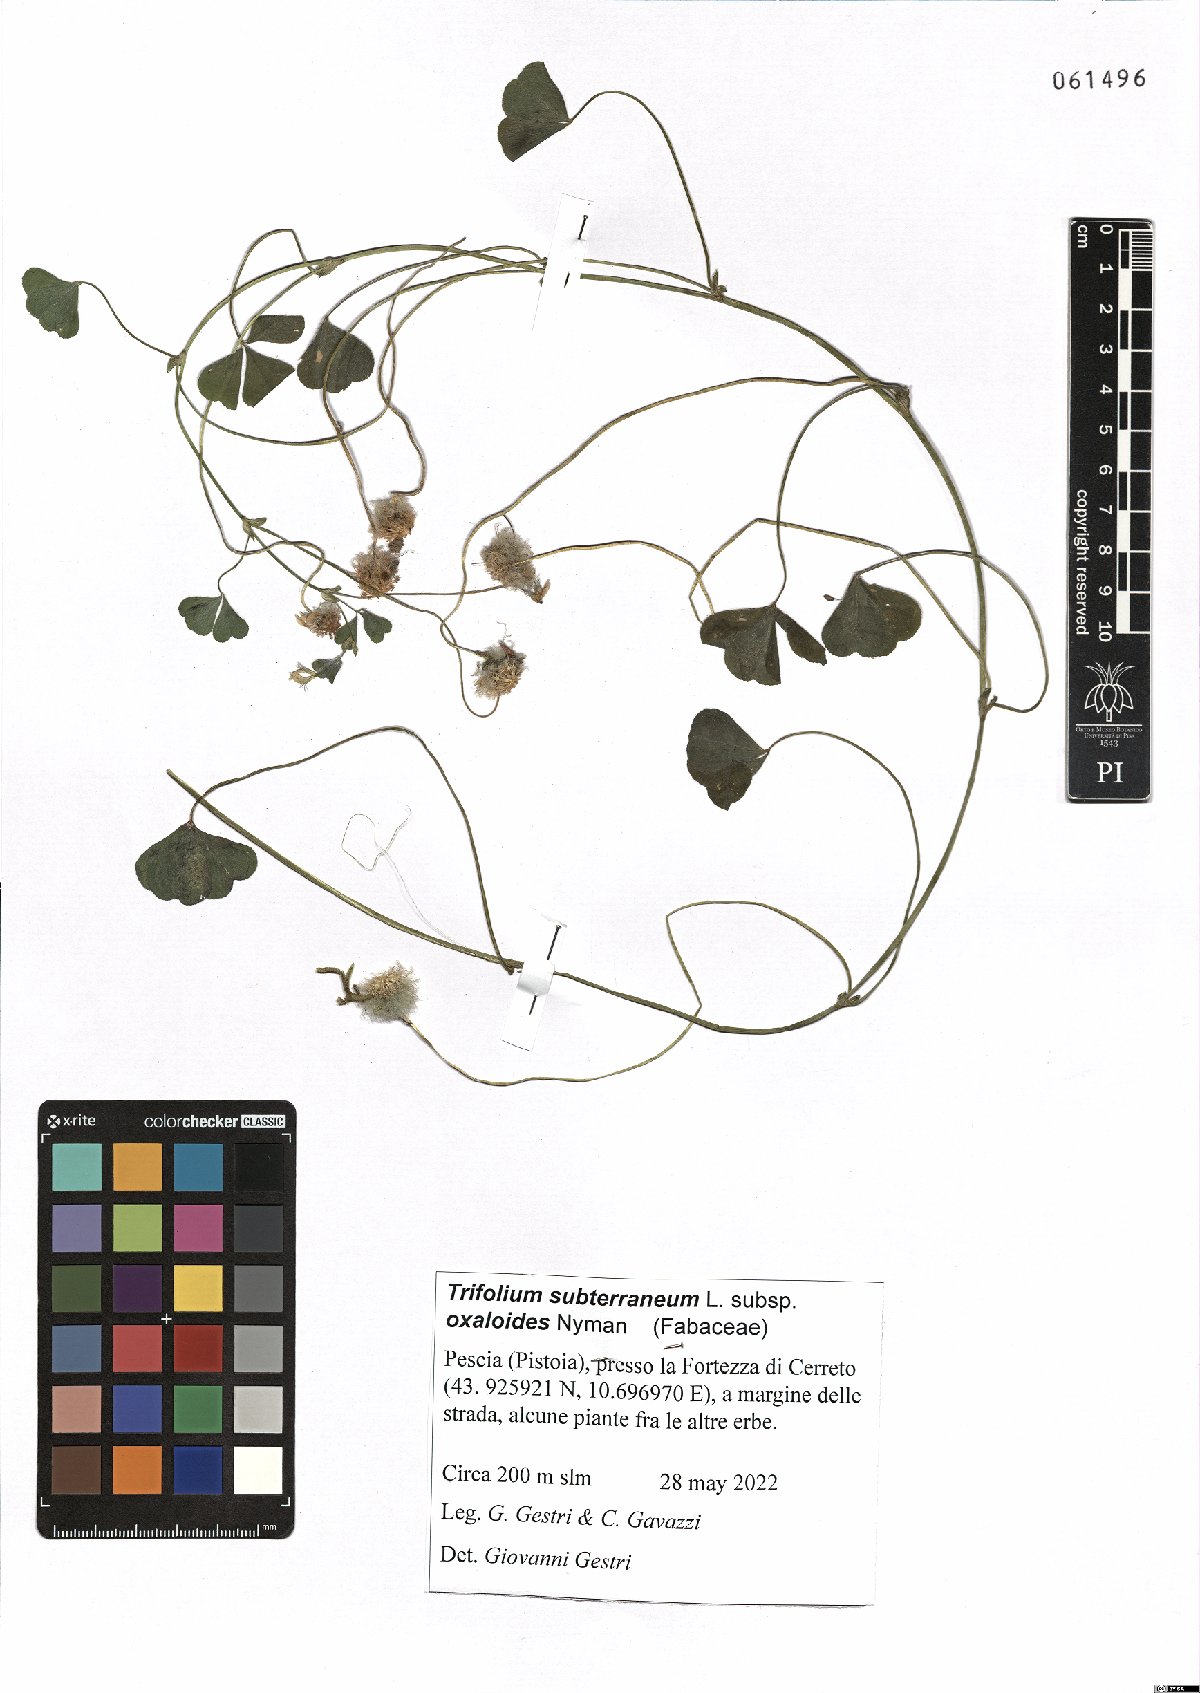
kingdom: Plantae
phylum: Tracheophyta
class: Magnoliopsida
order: Fabales
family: Fabaceae
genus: Trifolium
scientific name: Trifolium subterraneum
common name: Subterranean clover
